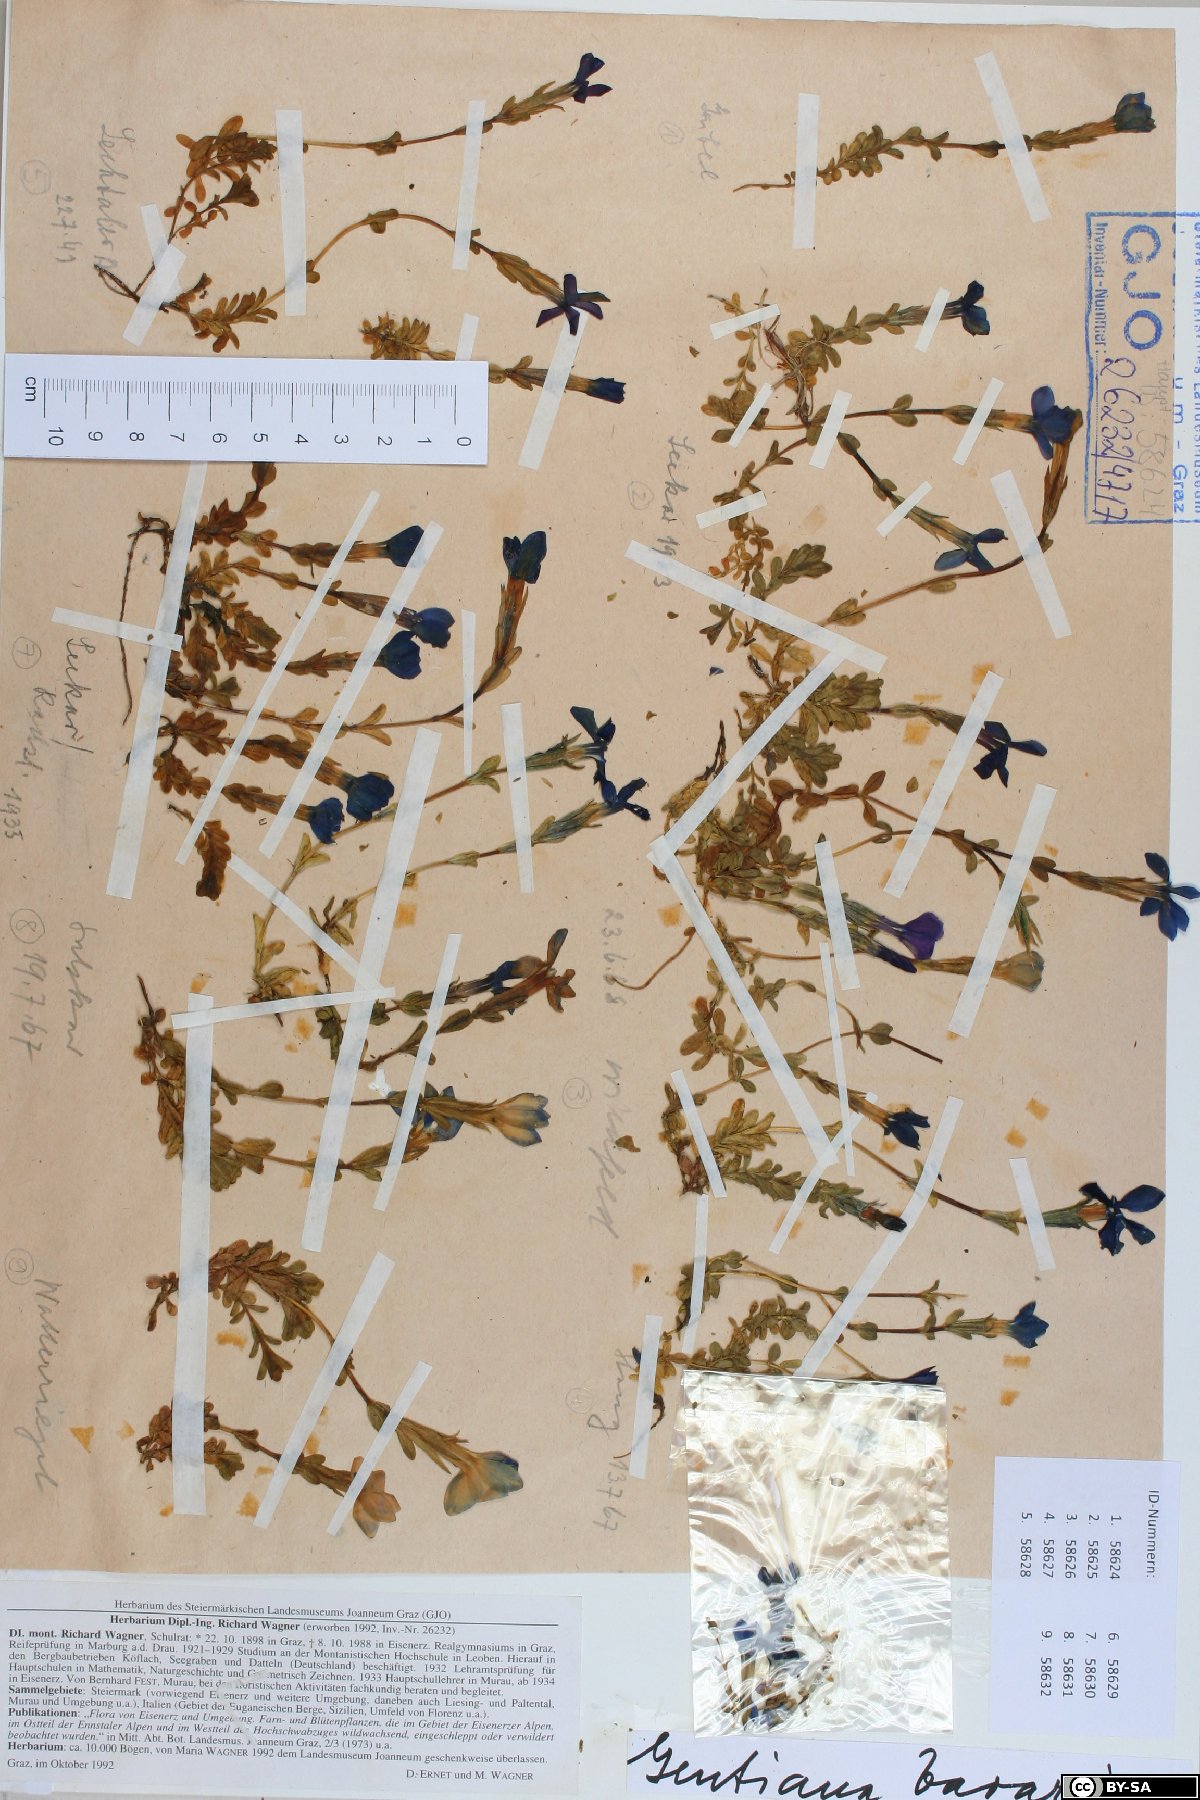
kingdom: Plantae
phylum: Tracheophyta
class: Magnoliopsida
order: Gentianales
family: Gentianaceae
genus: Gentiana
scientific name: Gentiana bavarica
